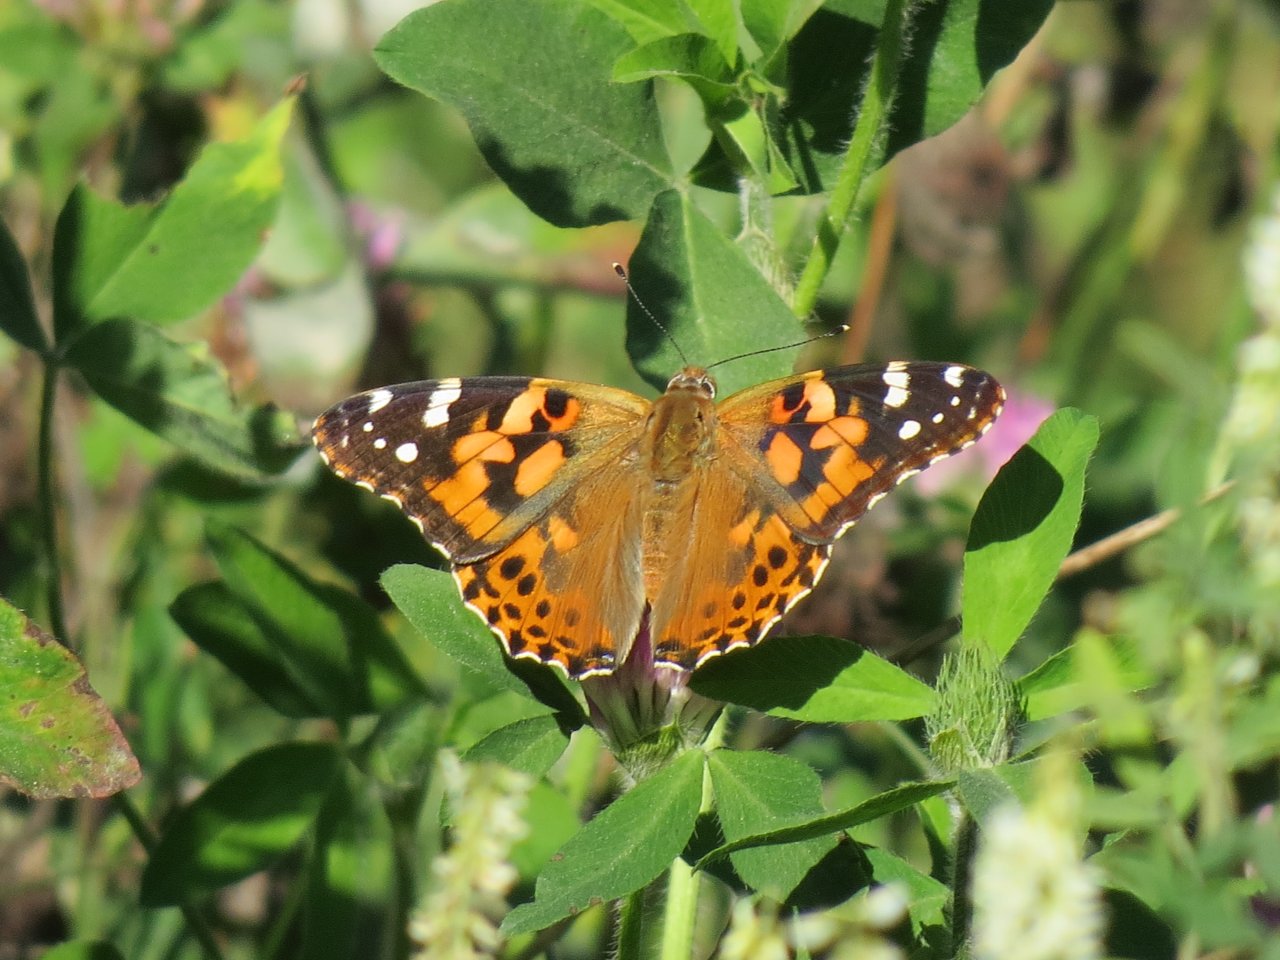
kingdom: Animalia
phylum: Arthropoda
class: Insecta
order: Lepidoptera
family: Nymphalidae
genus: Vanessa
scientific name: Vanessa cardui
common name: Painted Lady
